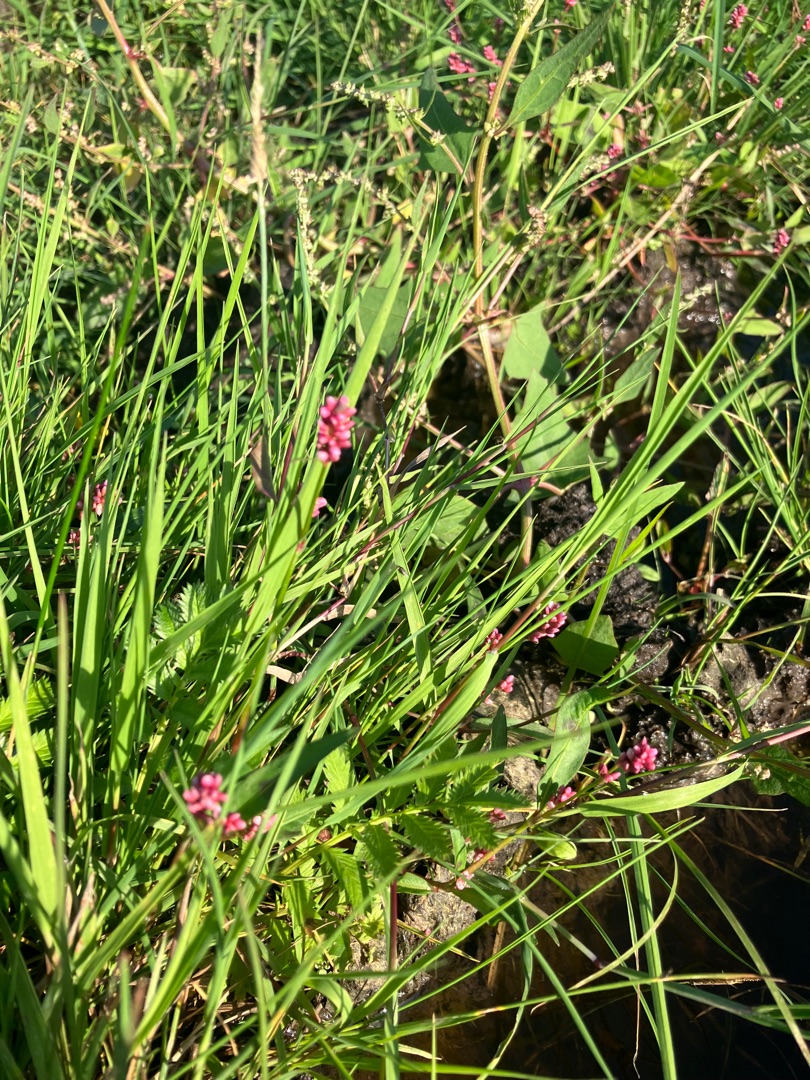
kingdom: Plantae
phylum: Tracheophyta
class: Magnoliopsida
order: Caryophyllales
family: Polygonaceae
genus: Persicaria
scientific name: Persicaria maculosa
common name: Fersken-pileurt
